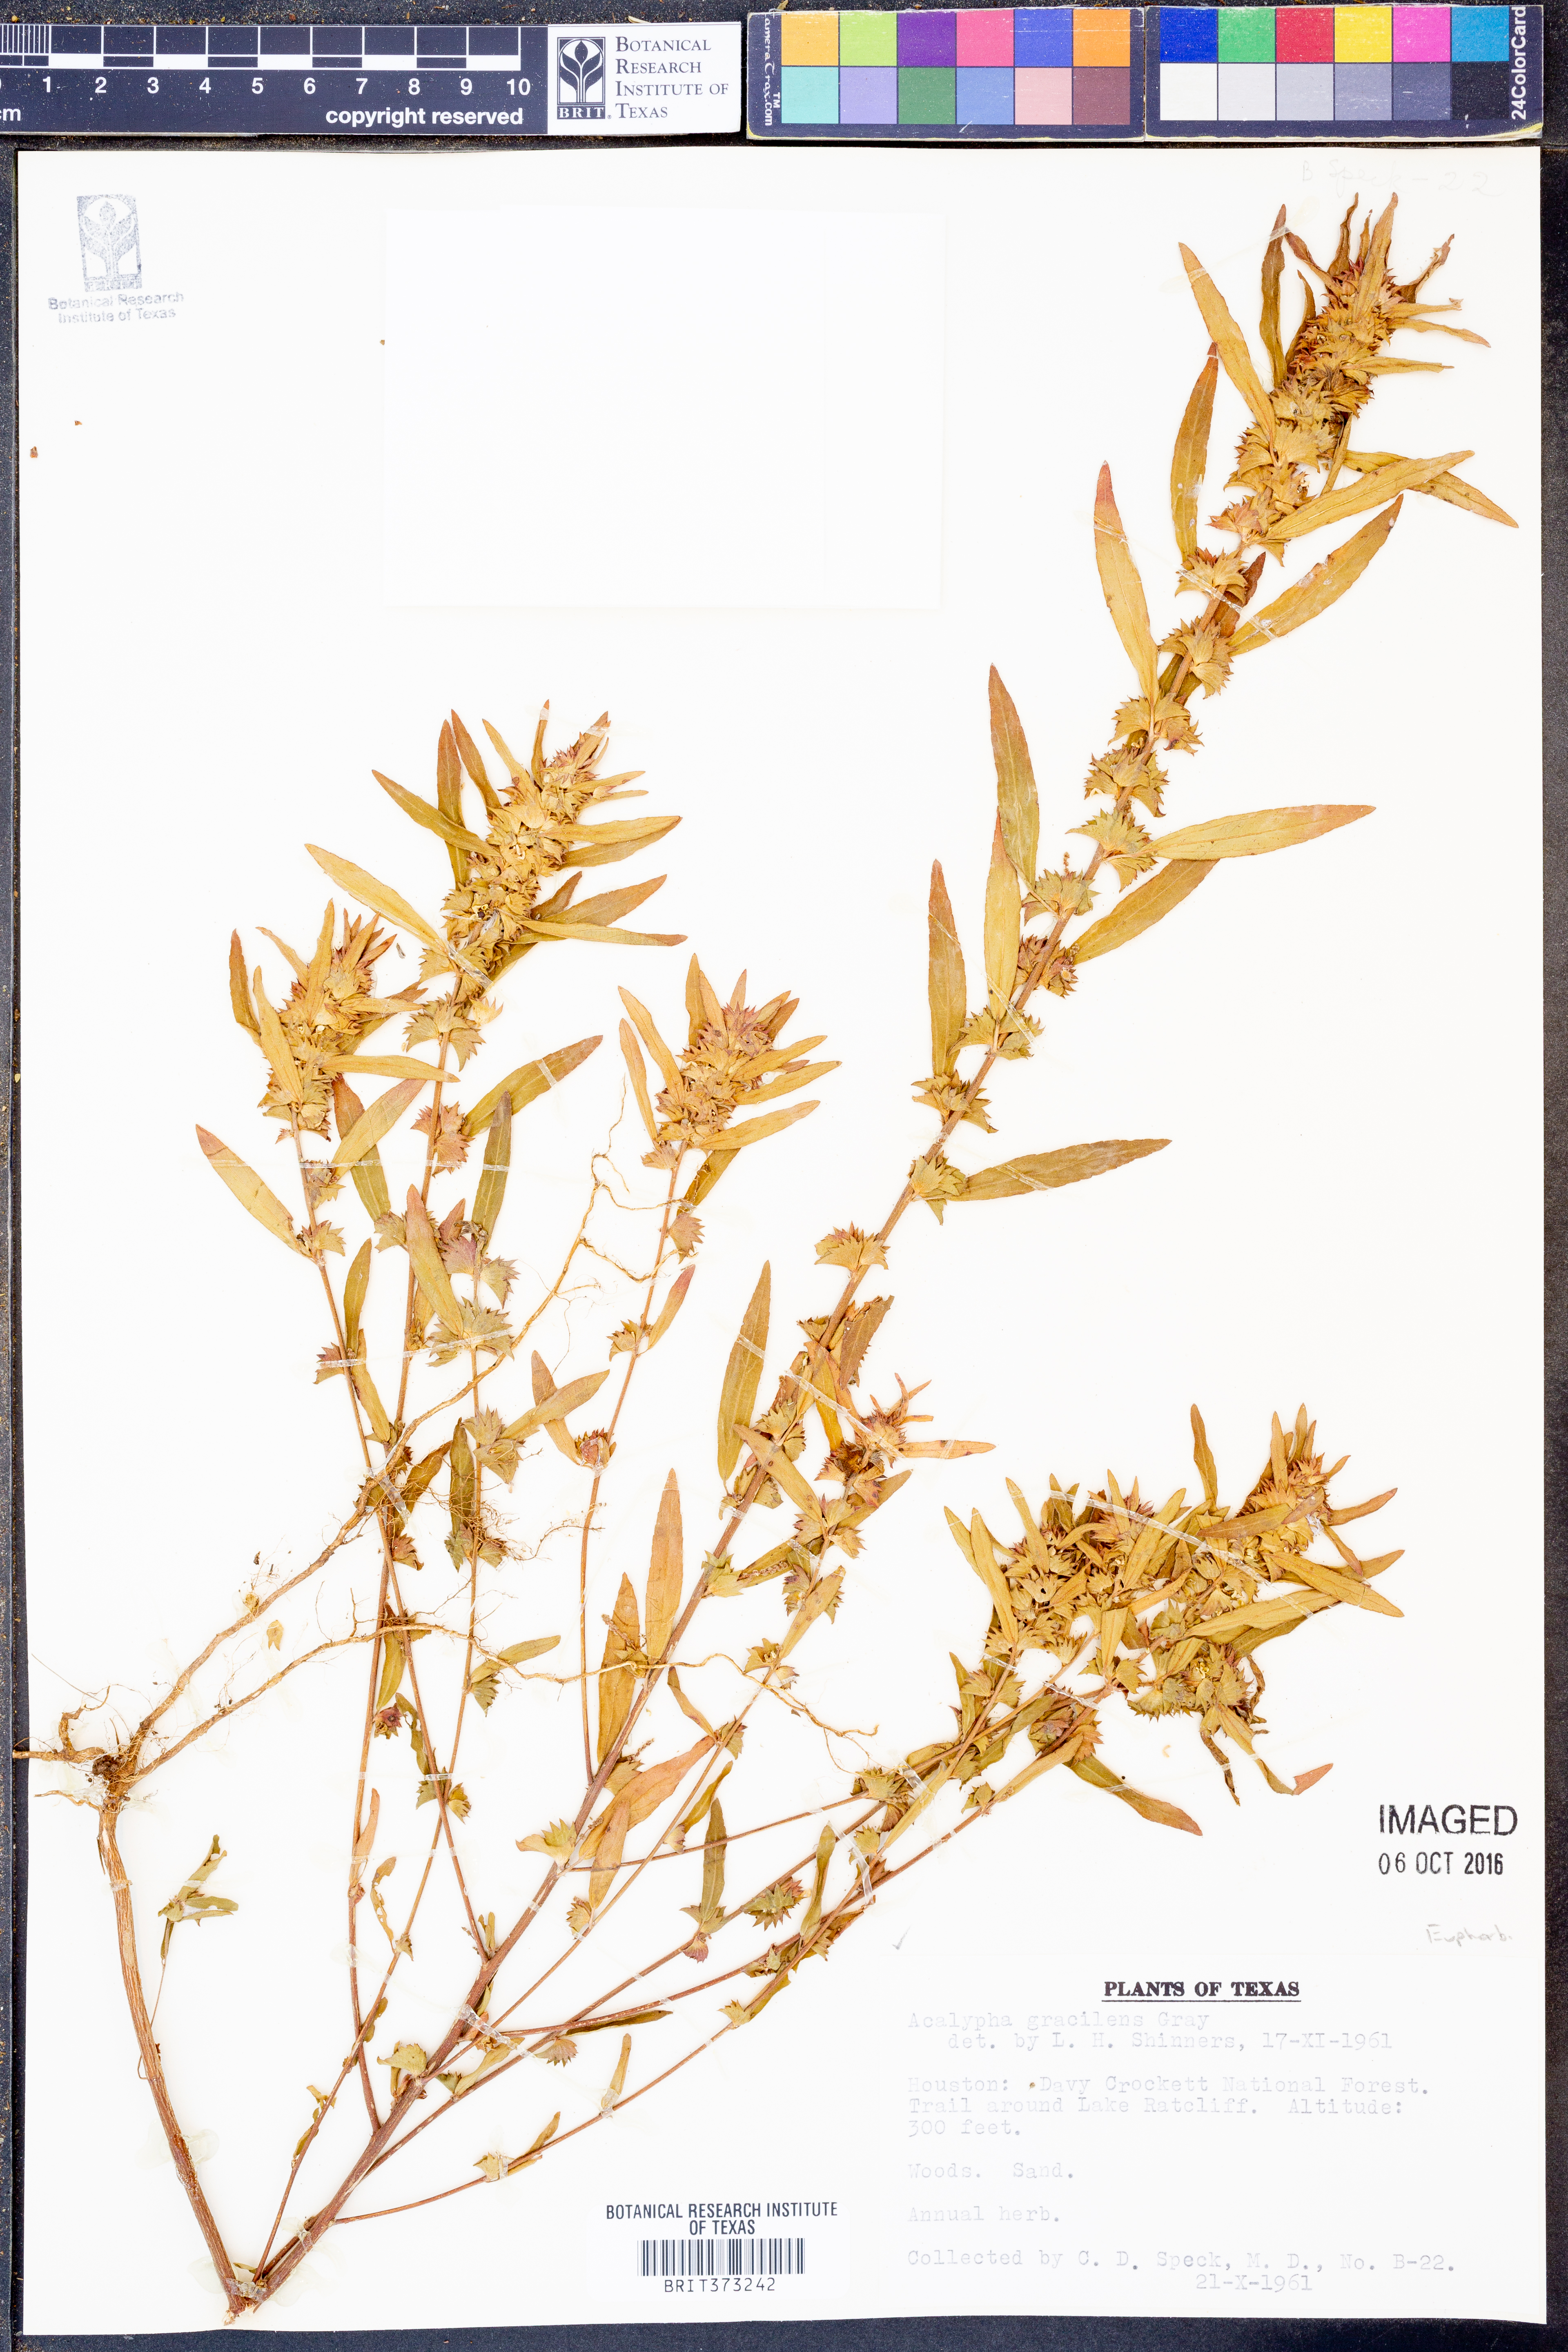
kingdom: Plantae
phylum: Tracheophyta
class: Magnoliopsida
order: Malpighiales
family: Euphorbiaceae
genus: Acalypha
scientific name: Acalypha gracilens
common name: Slender three-seeded mercury
